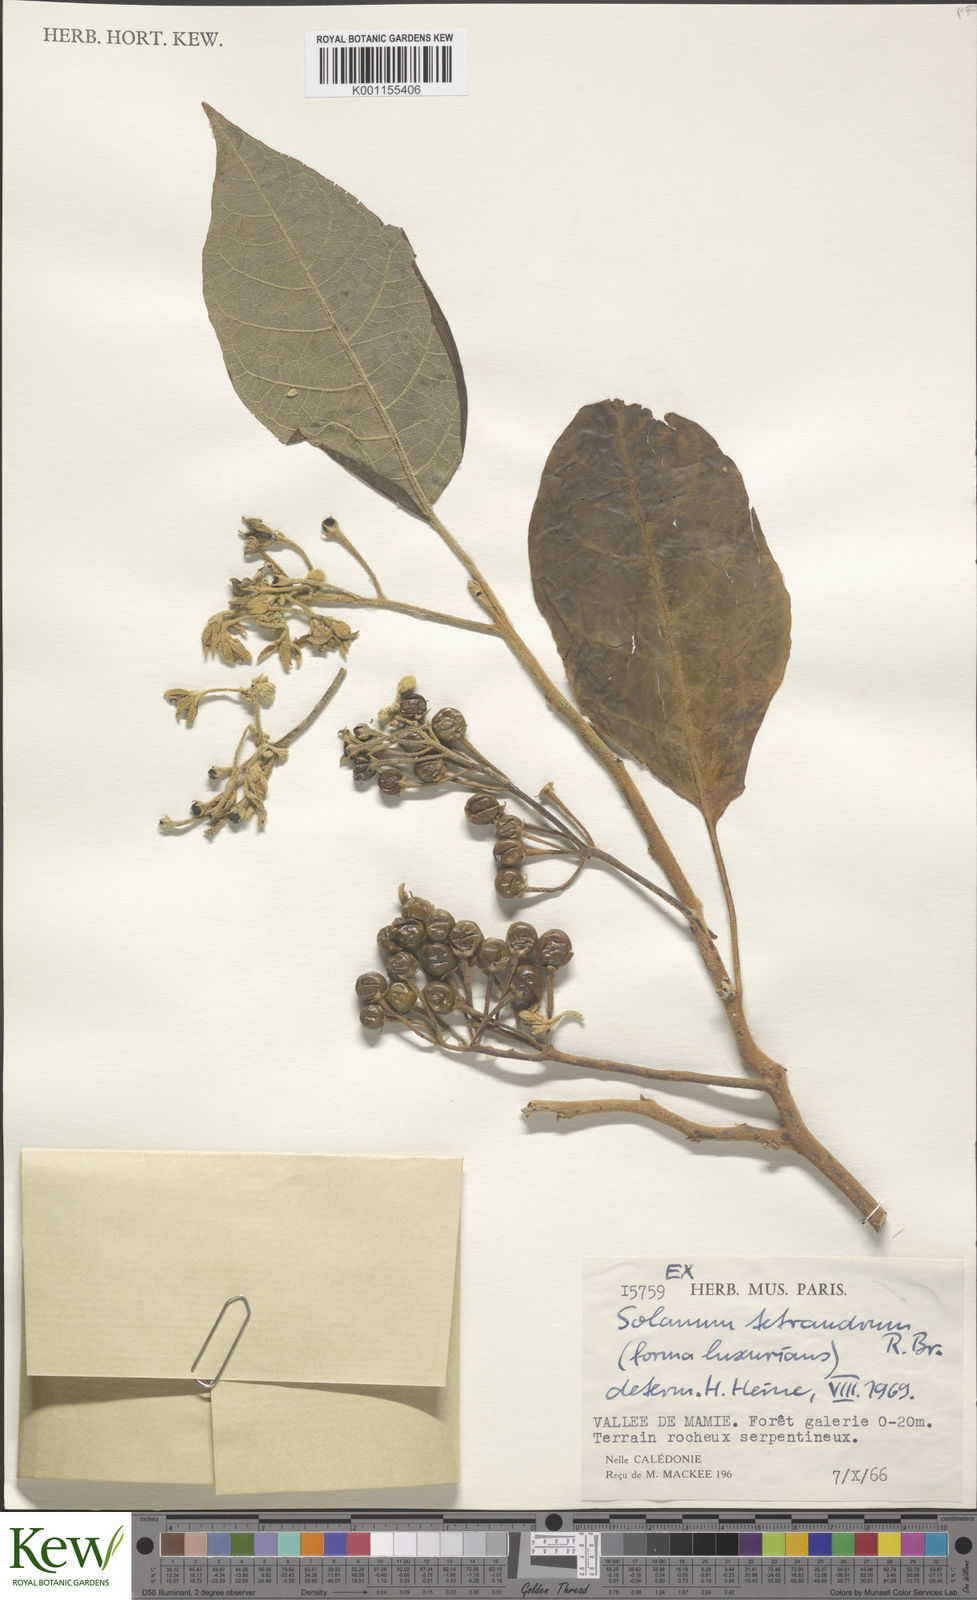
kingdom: Plantae
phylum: Tracheophyta
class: Magnoliopsida
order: Solanales
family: Solanaceae
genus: Solanum
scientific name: Solanum tetrandrum
